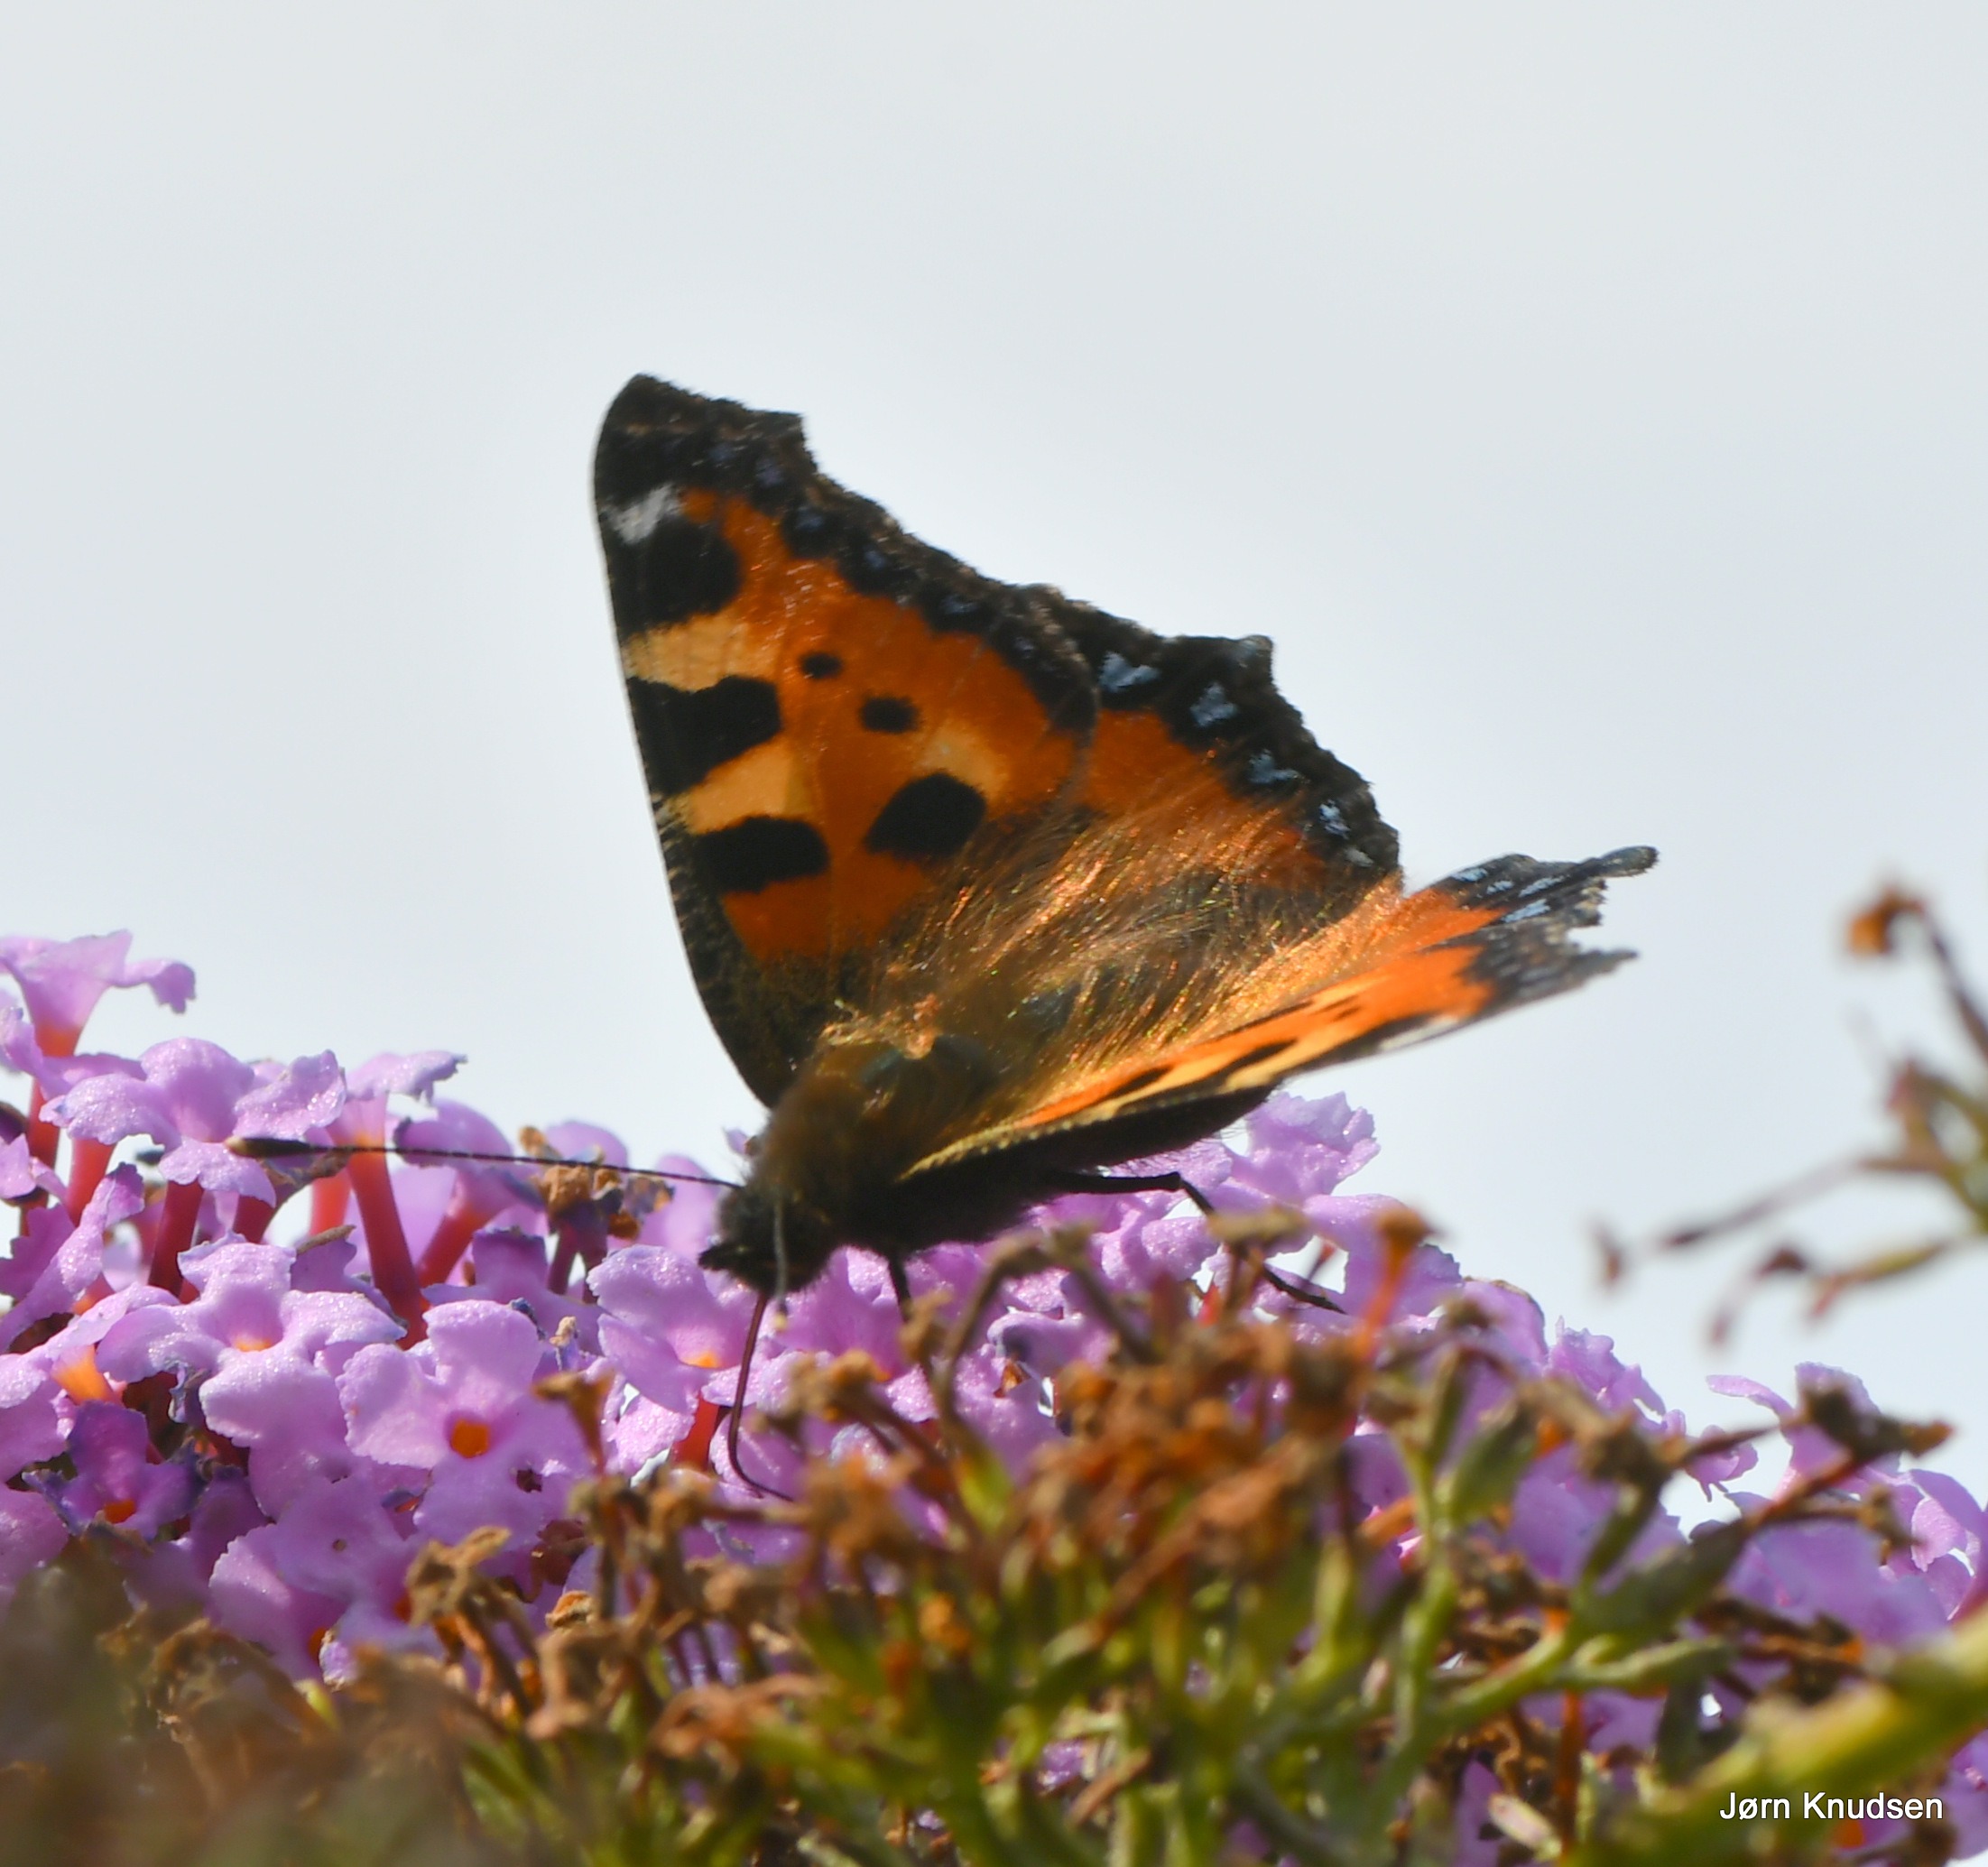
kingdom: Animalia
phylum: Arthropoda
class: Insecta
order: Lepidoptera
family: Nymphalidae
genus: Aglais
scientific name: Aglais urticae
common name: Nældens takvinge
